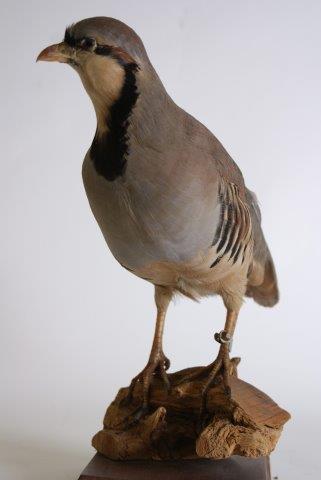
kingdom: Animalia
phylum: Chordata
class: Aves
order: Galliformes
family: Phasianidae
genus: Alectoris
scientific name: Alectoris chukar
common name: Aziatische steenpatrijs
